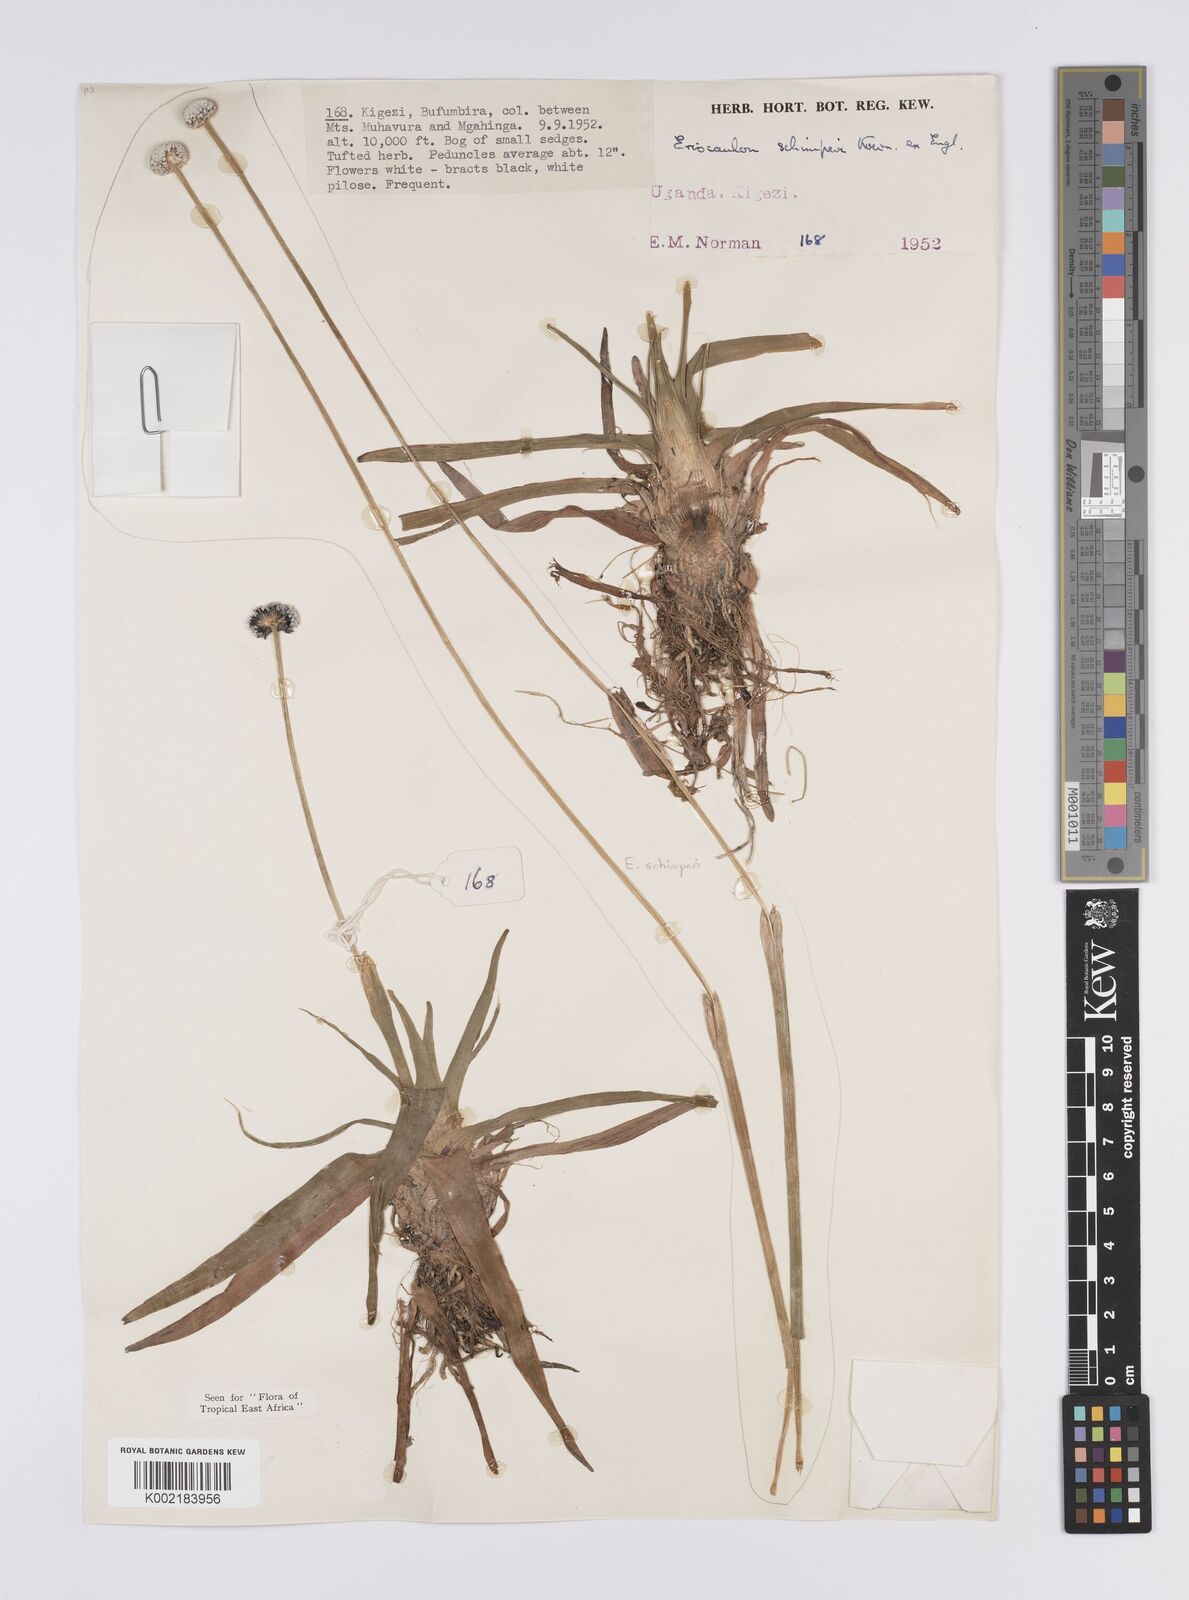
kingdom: Plantae
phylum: Tracheophyta
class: Liliopsida
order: Poales
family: Eriocaulaceae
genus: Eriocaulon
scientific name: Eriocaulon schimperi
